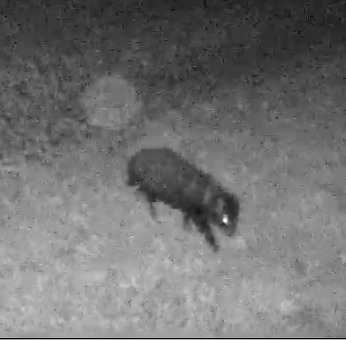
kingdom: Animalia
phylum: Chordata
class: Mammalia
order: Carnivora
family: Canidae
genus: Nyctereutes
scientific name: Nyctereutes procyonoides
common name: Mårhund
